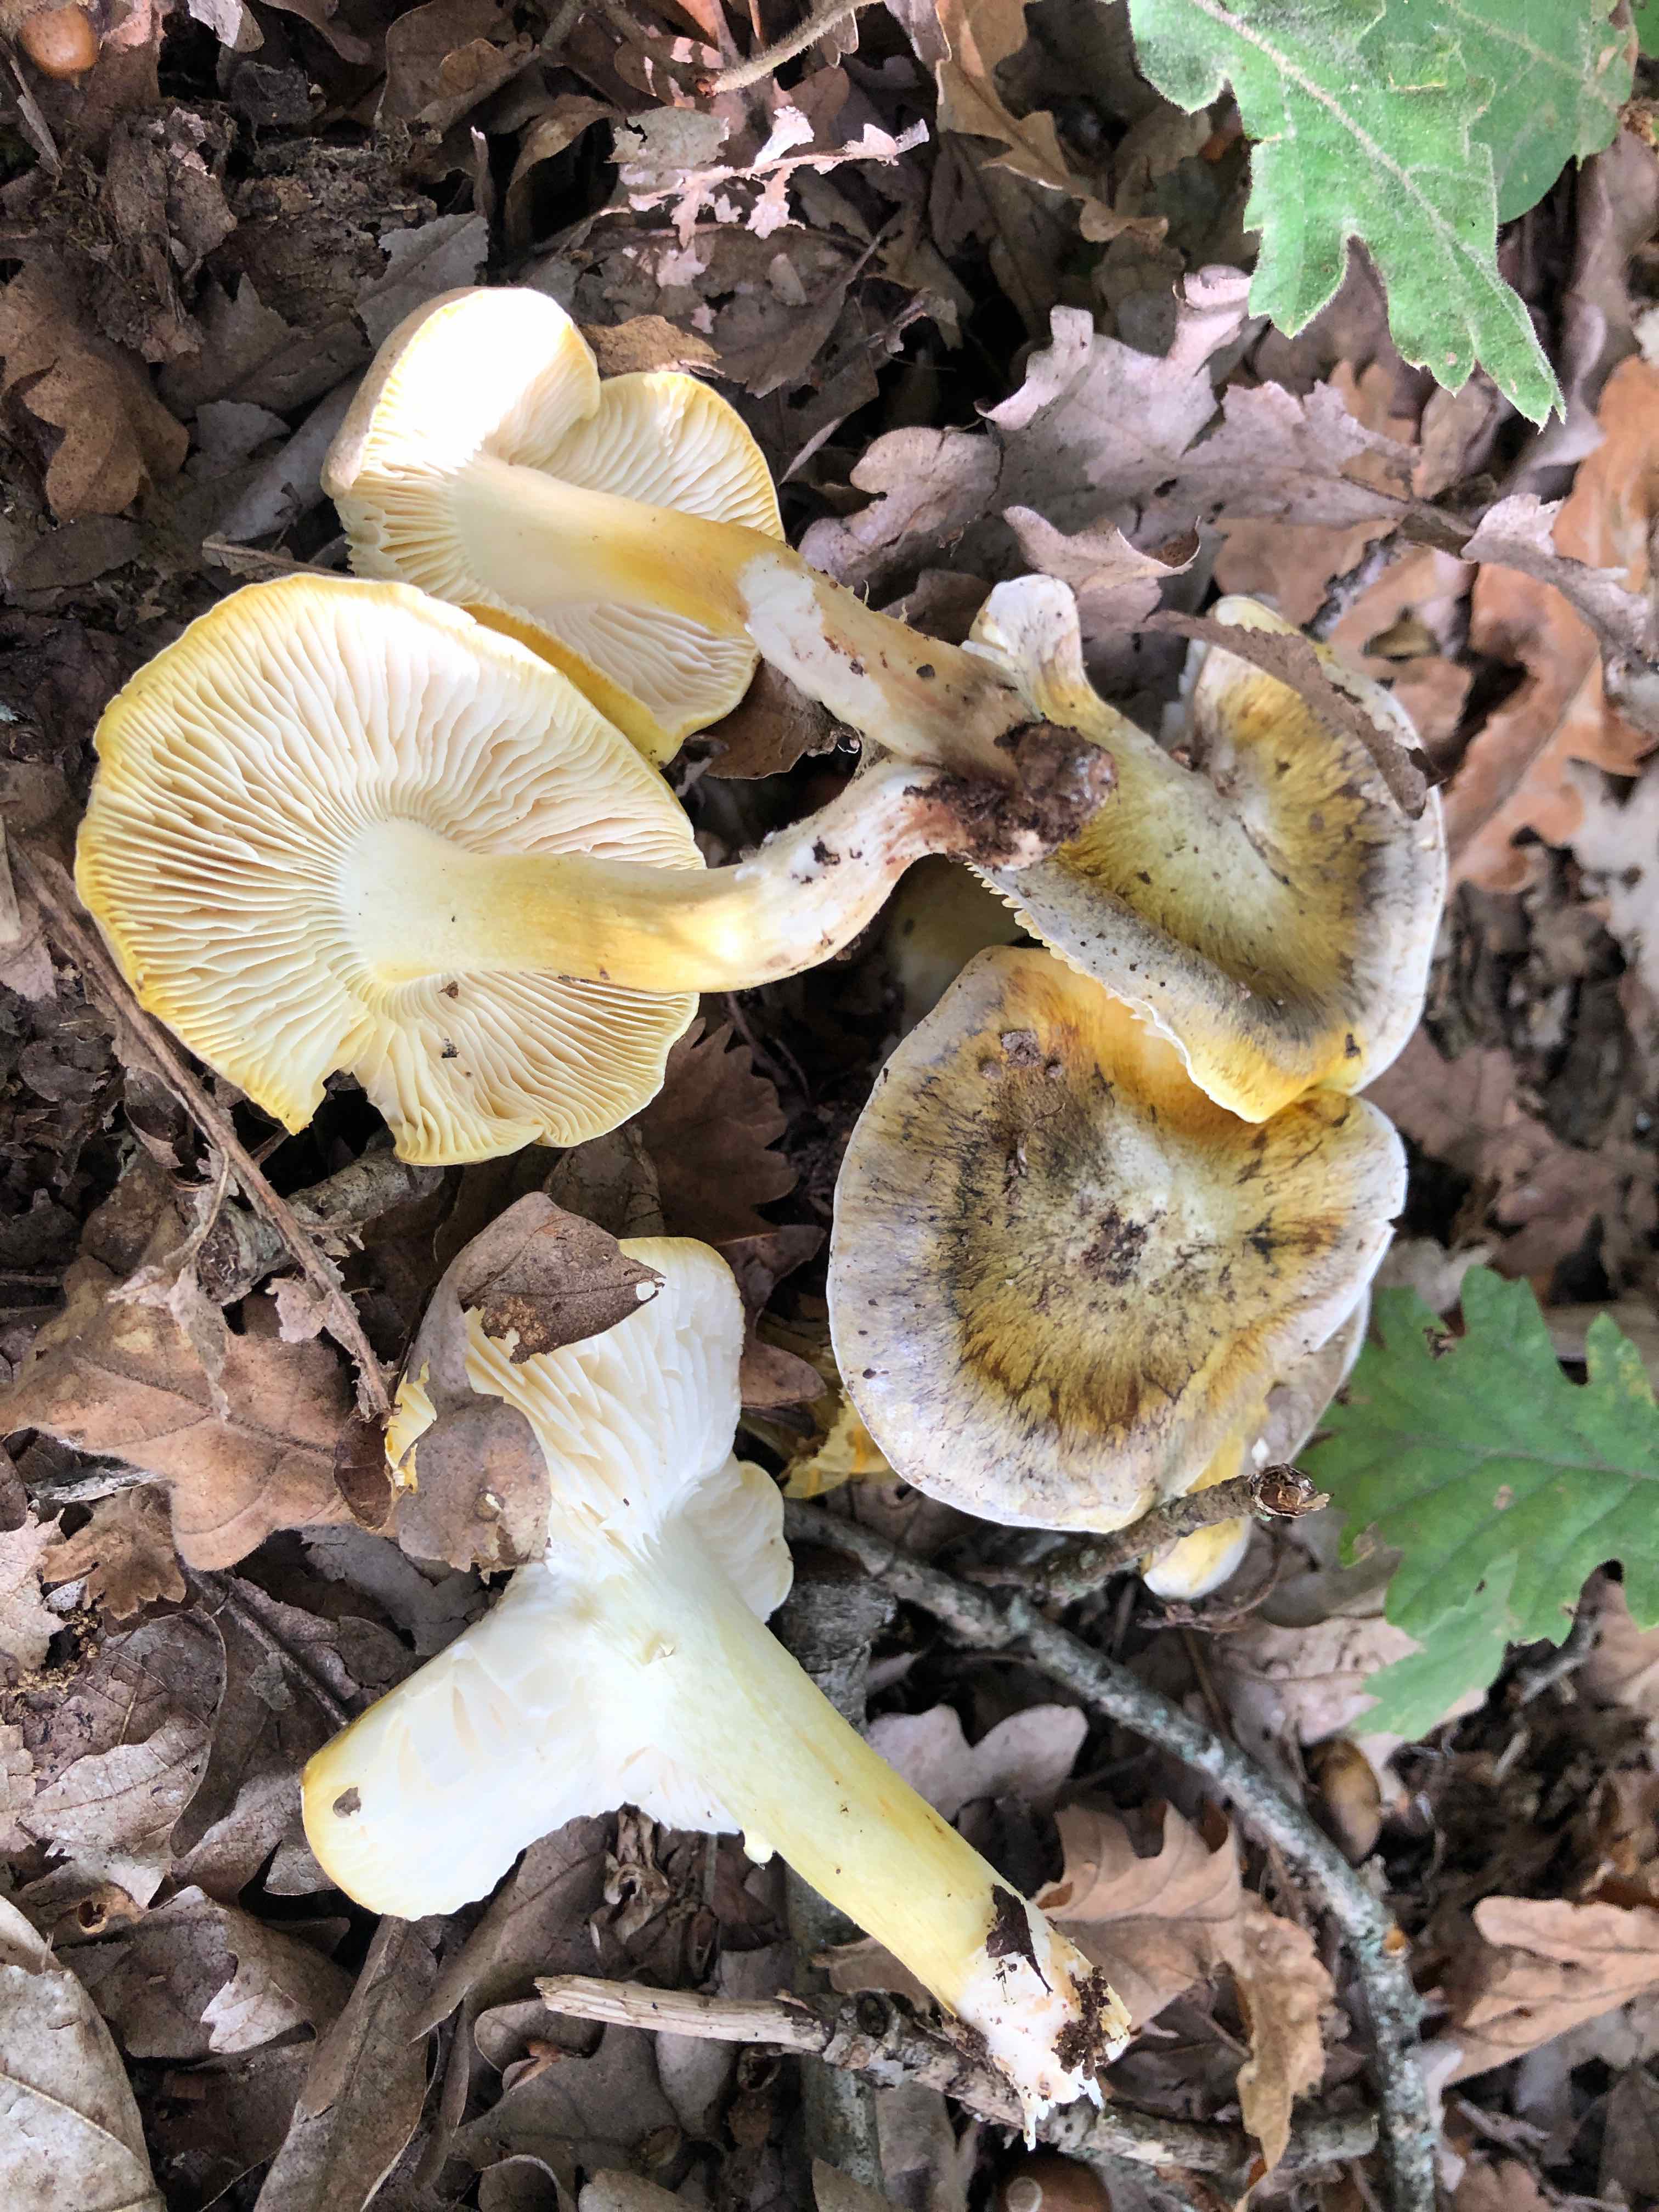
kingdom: Fungi
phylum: Basidiomycota
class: Agaricomycetes
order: Agaricales
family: Tricholomataceae
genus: Tricholoma
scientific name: Tricholoma sejunctum
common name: grøngul ridderhat
